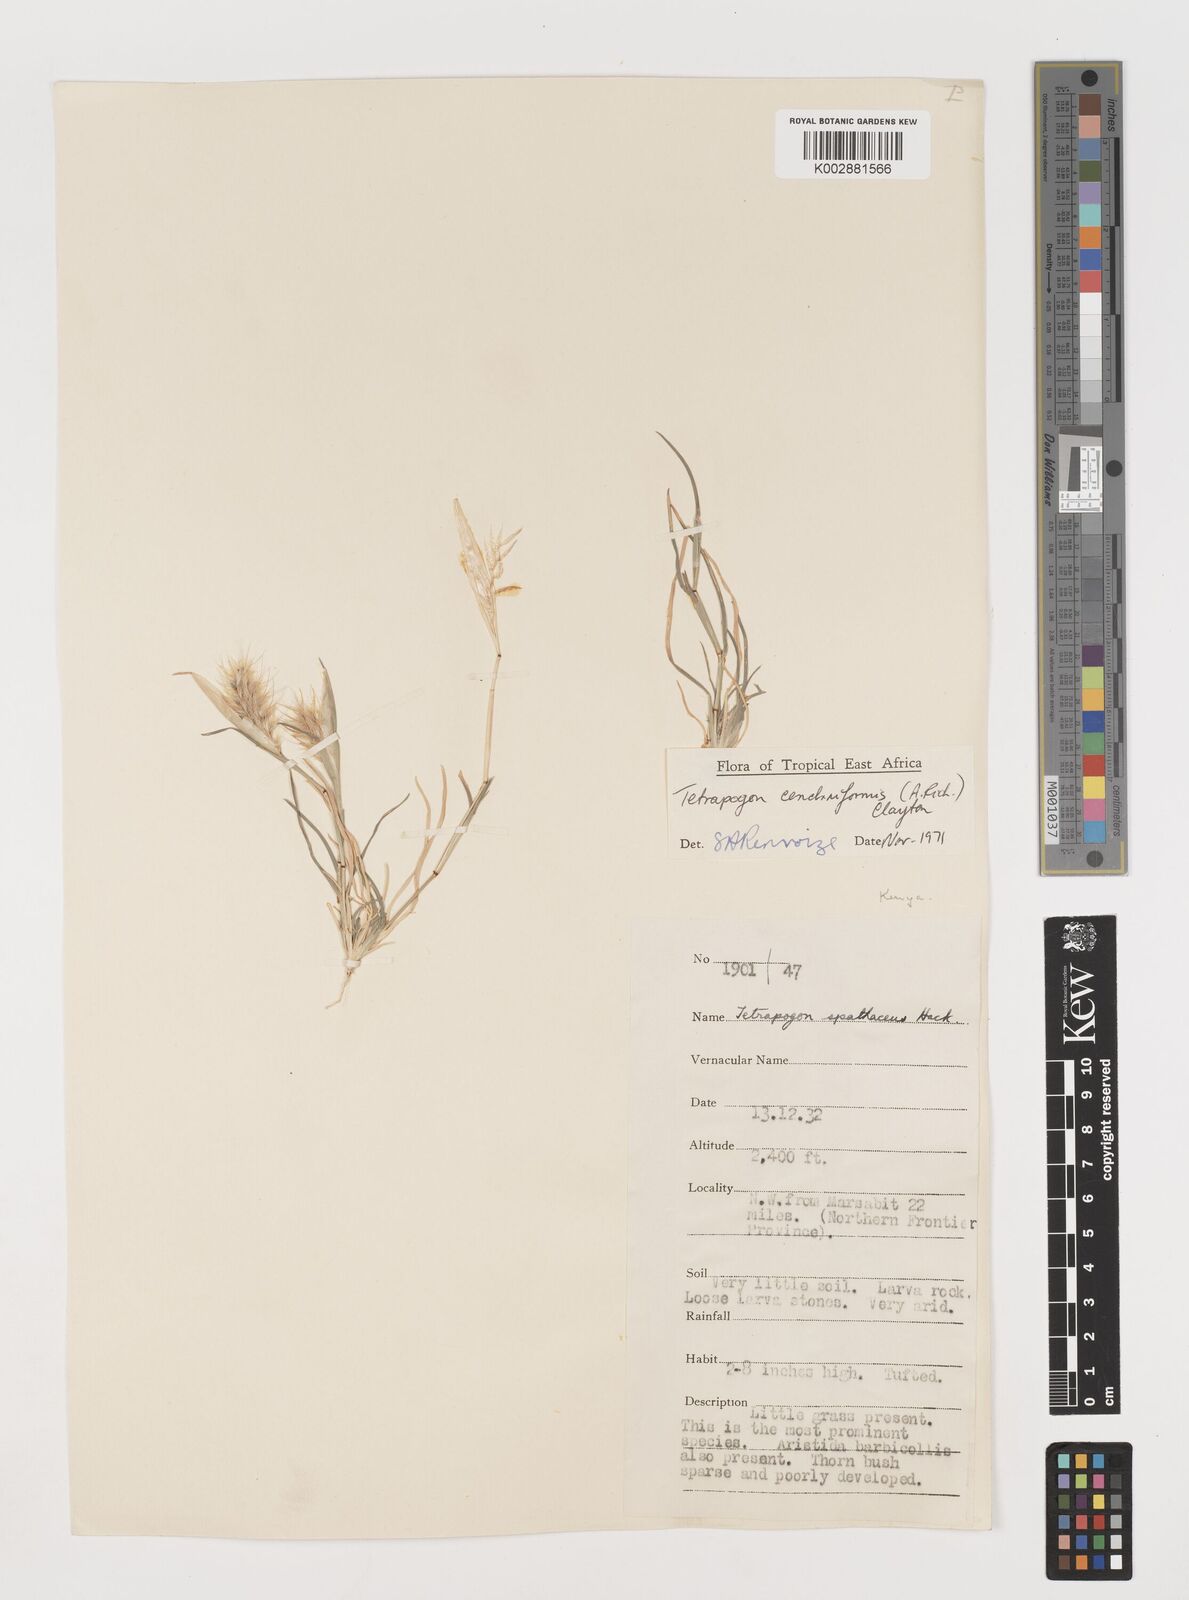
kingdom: Plantae
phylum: Tracheophyta
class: Liliopsida
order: Poales
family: Poaceae
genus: Tetrapogon
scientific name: Tetrapogon cenchriformis
